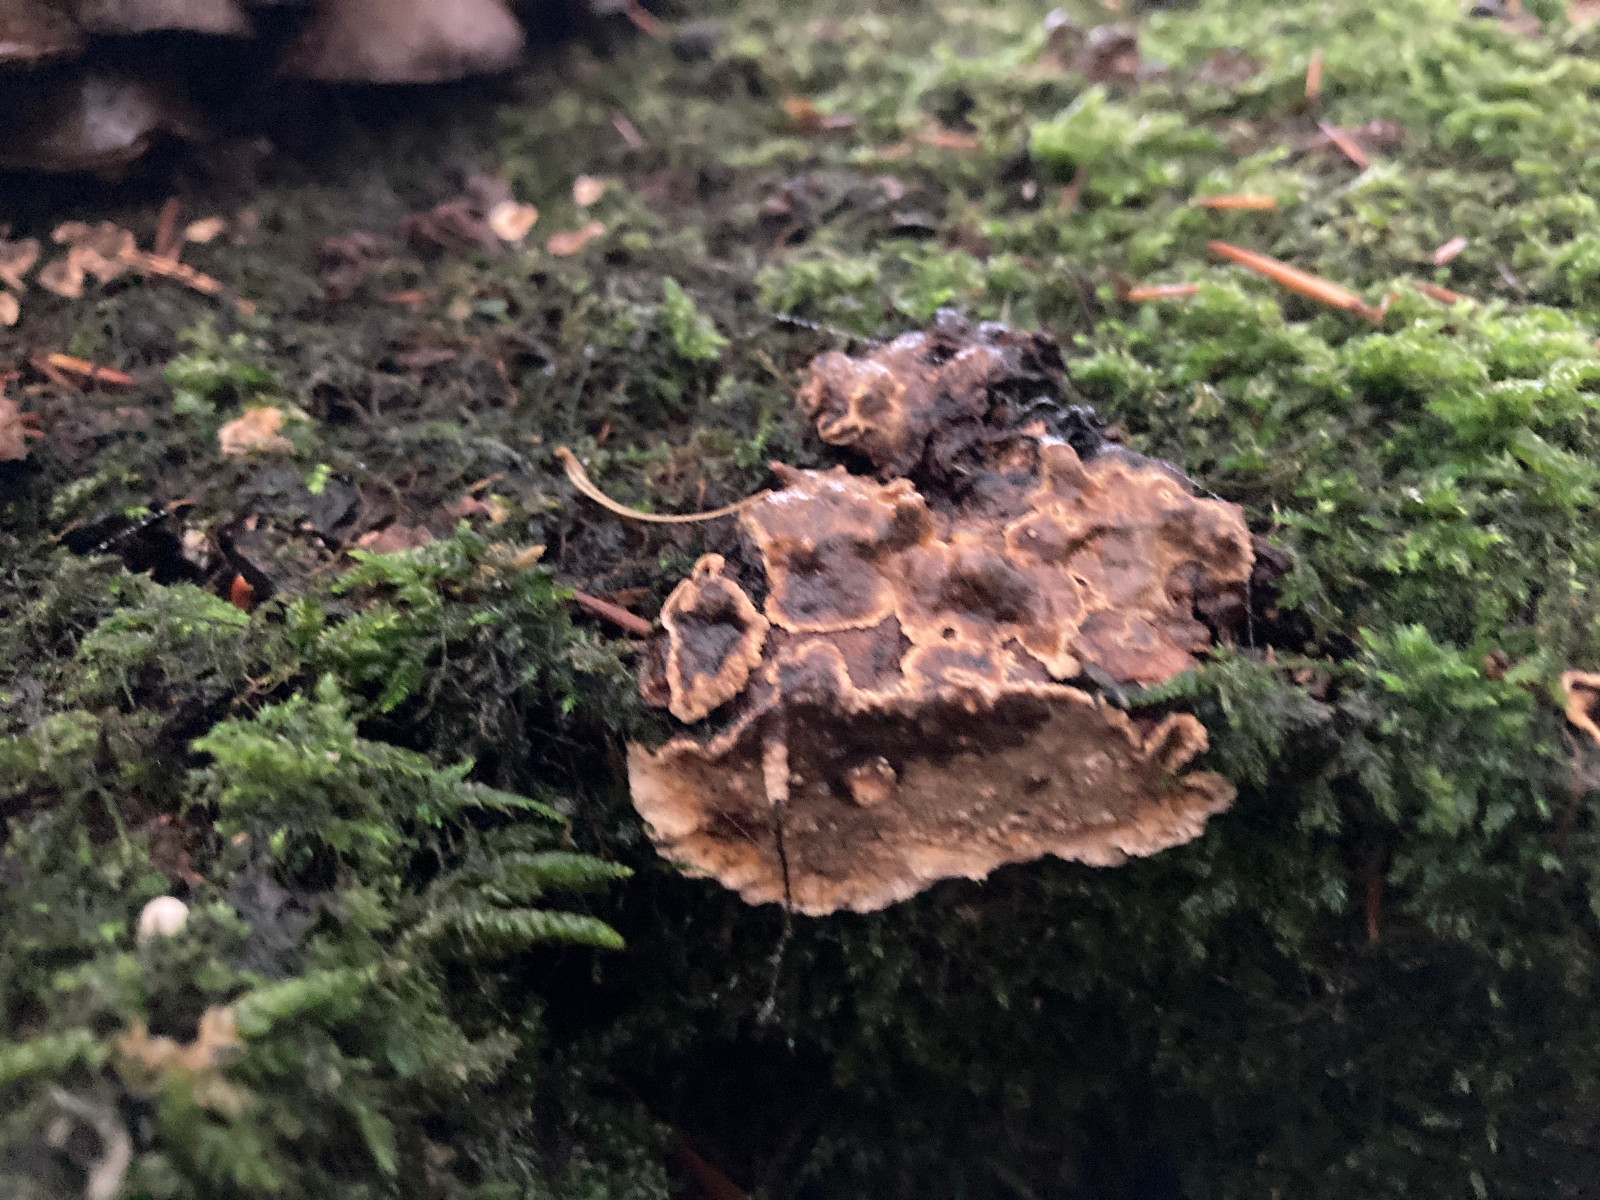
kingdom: Fungi
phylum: Basidiomycota
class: Agaricomycetes
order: Russulales
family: Stereaceae
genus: Stereum
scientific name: Stereum rugosum
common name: rynket lædersvamp
